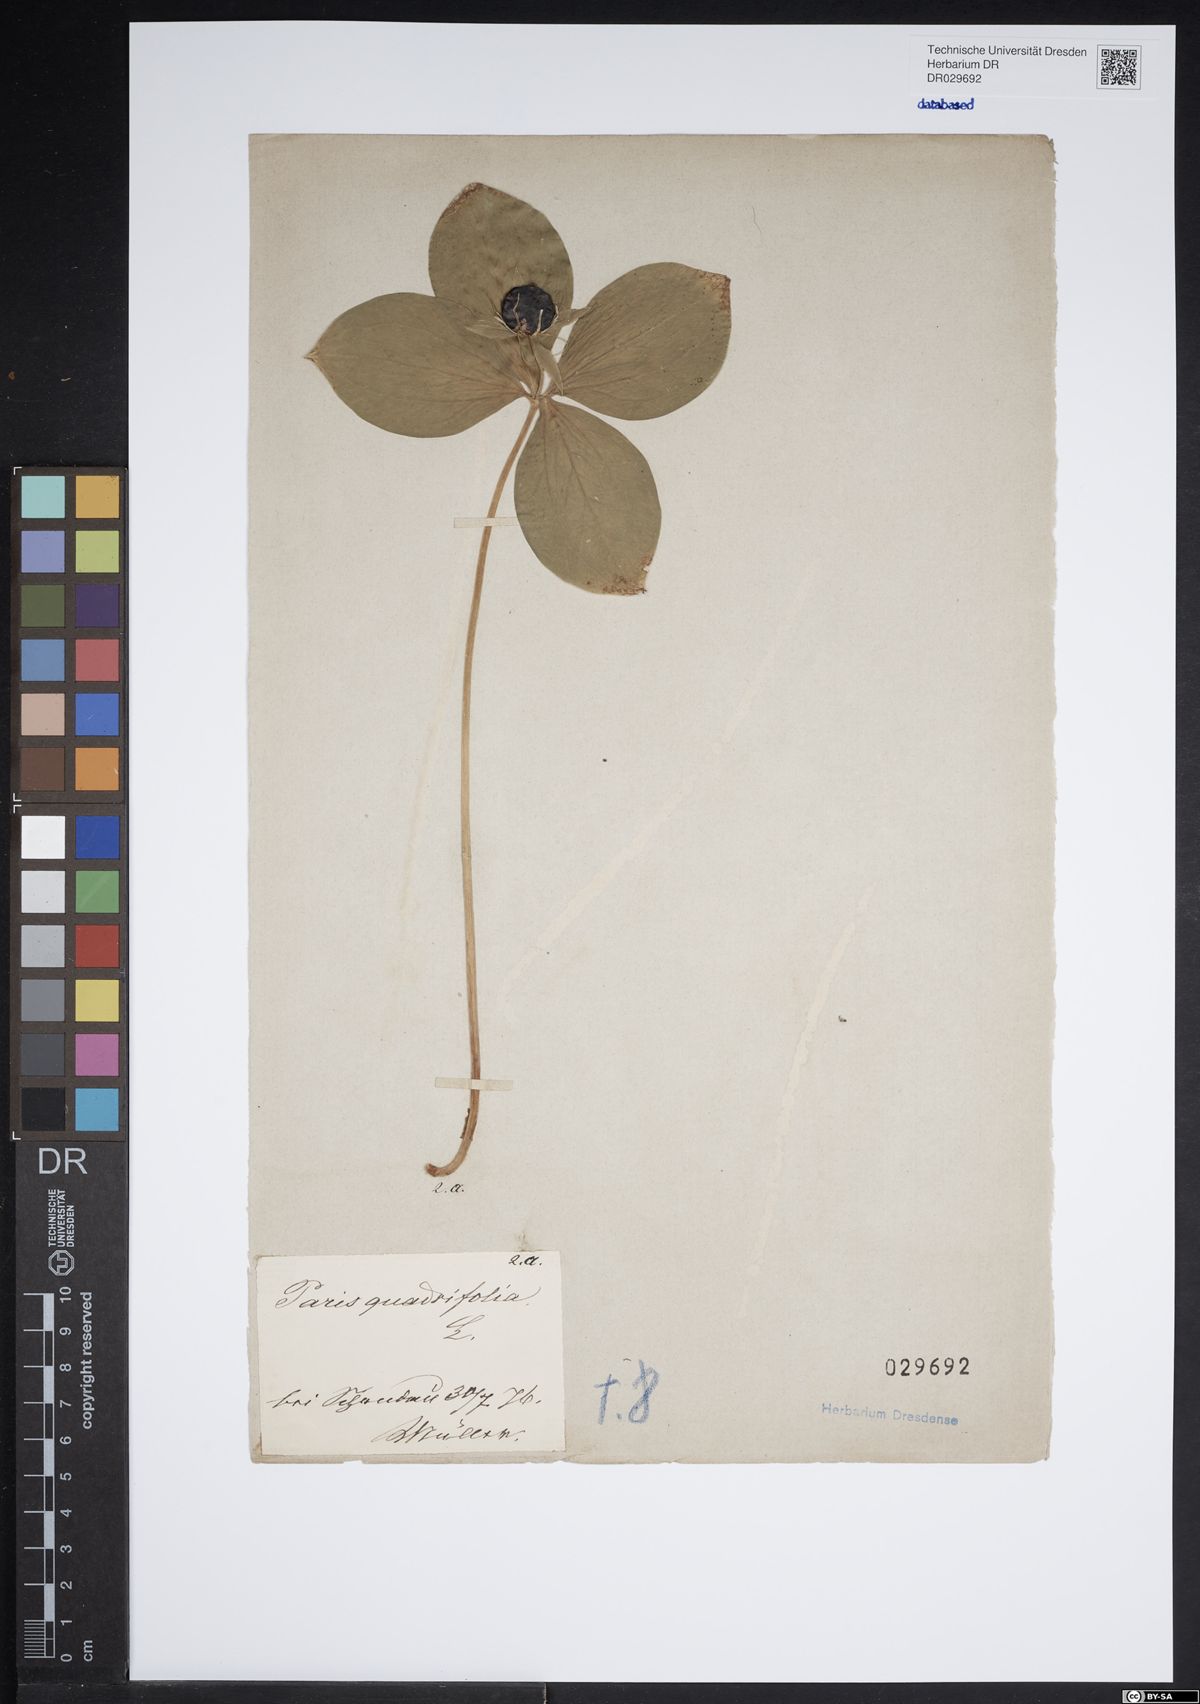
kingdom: Plantae
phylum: Tracheophyta
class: Liliopsida
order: Liliales
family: Melanthiaceae
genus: Paris
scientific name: Paris quadrifolia
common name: Herb-paris
